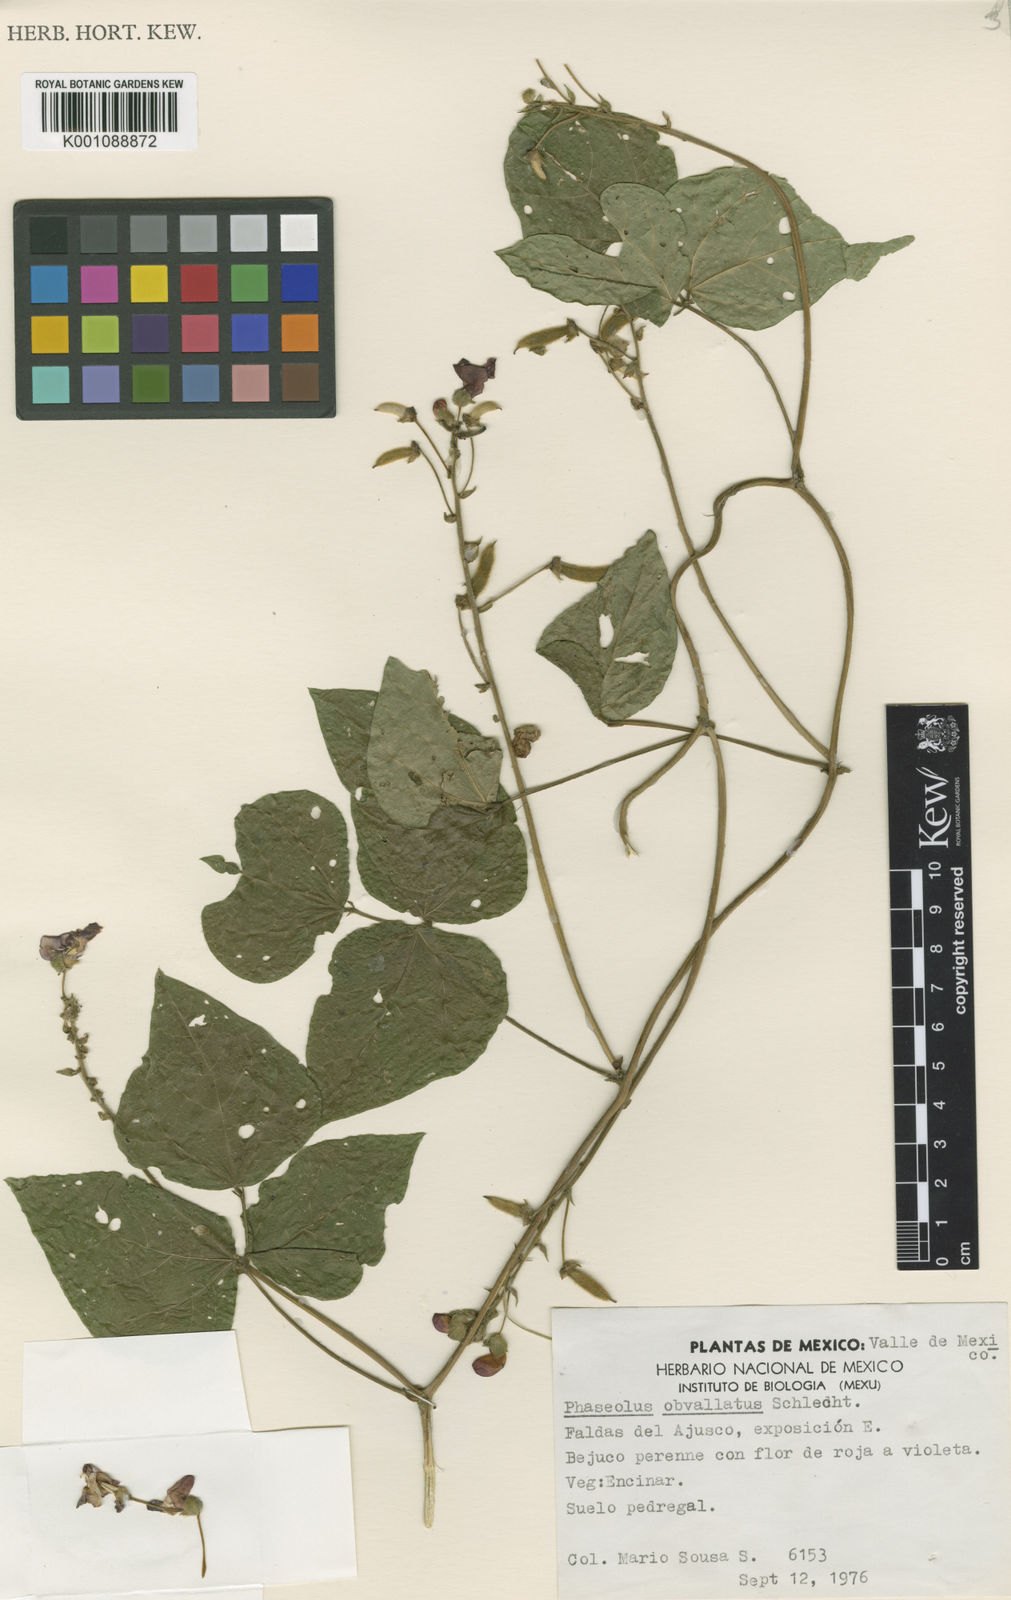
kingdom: Plantae
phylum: Tracheophyta
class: Magnoliopsida
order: Fabales
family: Fabaceae
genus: Phaseolus
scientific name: Phaseolus coccineus
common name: Runner bean
